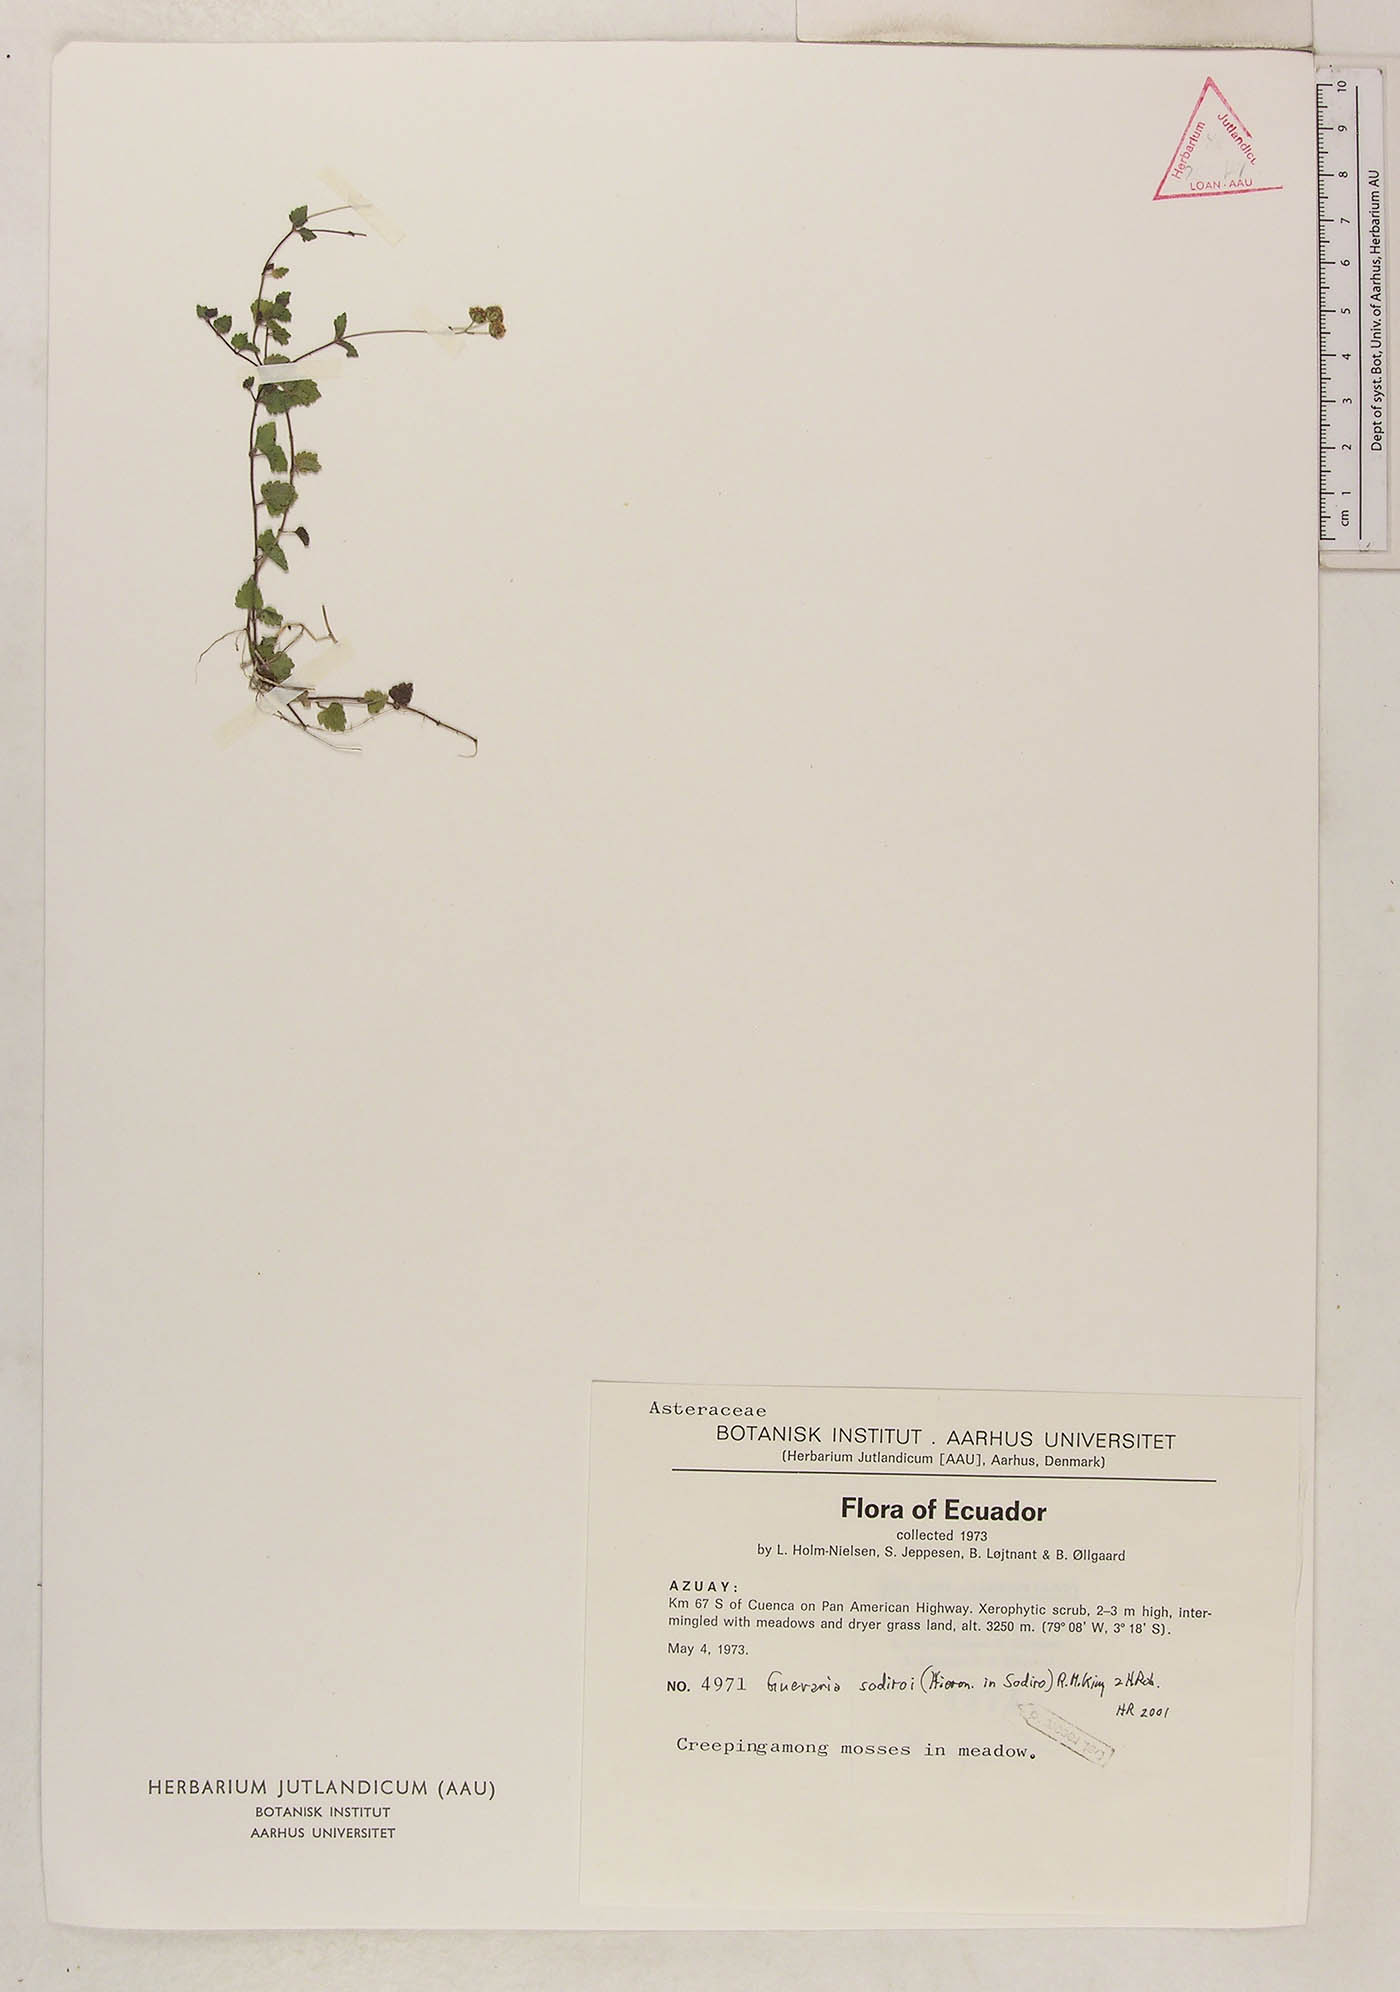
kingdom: Plantae
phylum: Tracheophyta
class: Magnoliopsida
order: Asterales
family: Asteraceae
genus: Guevaria
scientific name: Guevaria sodiroi
